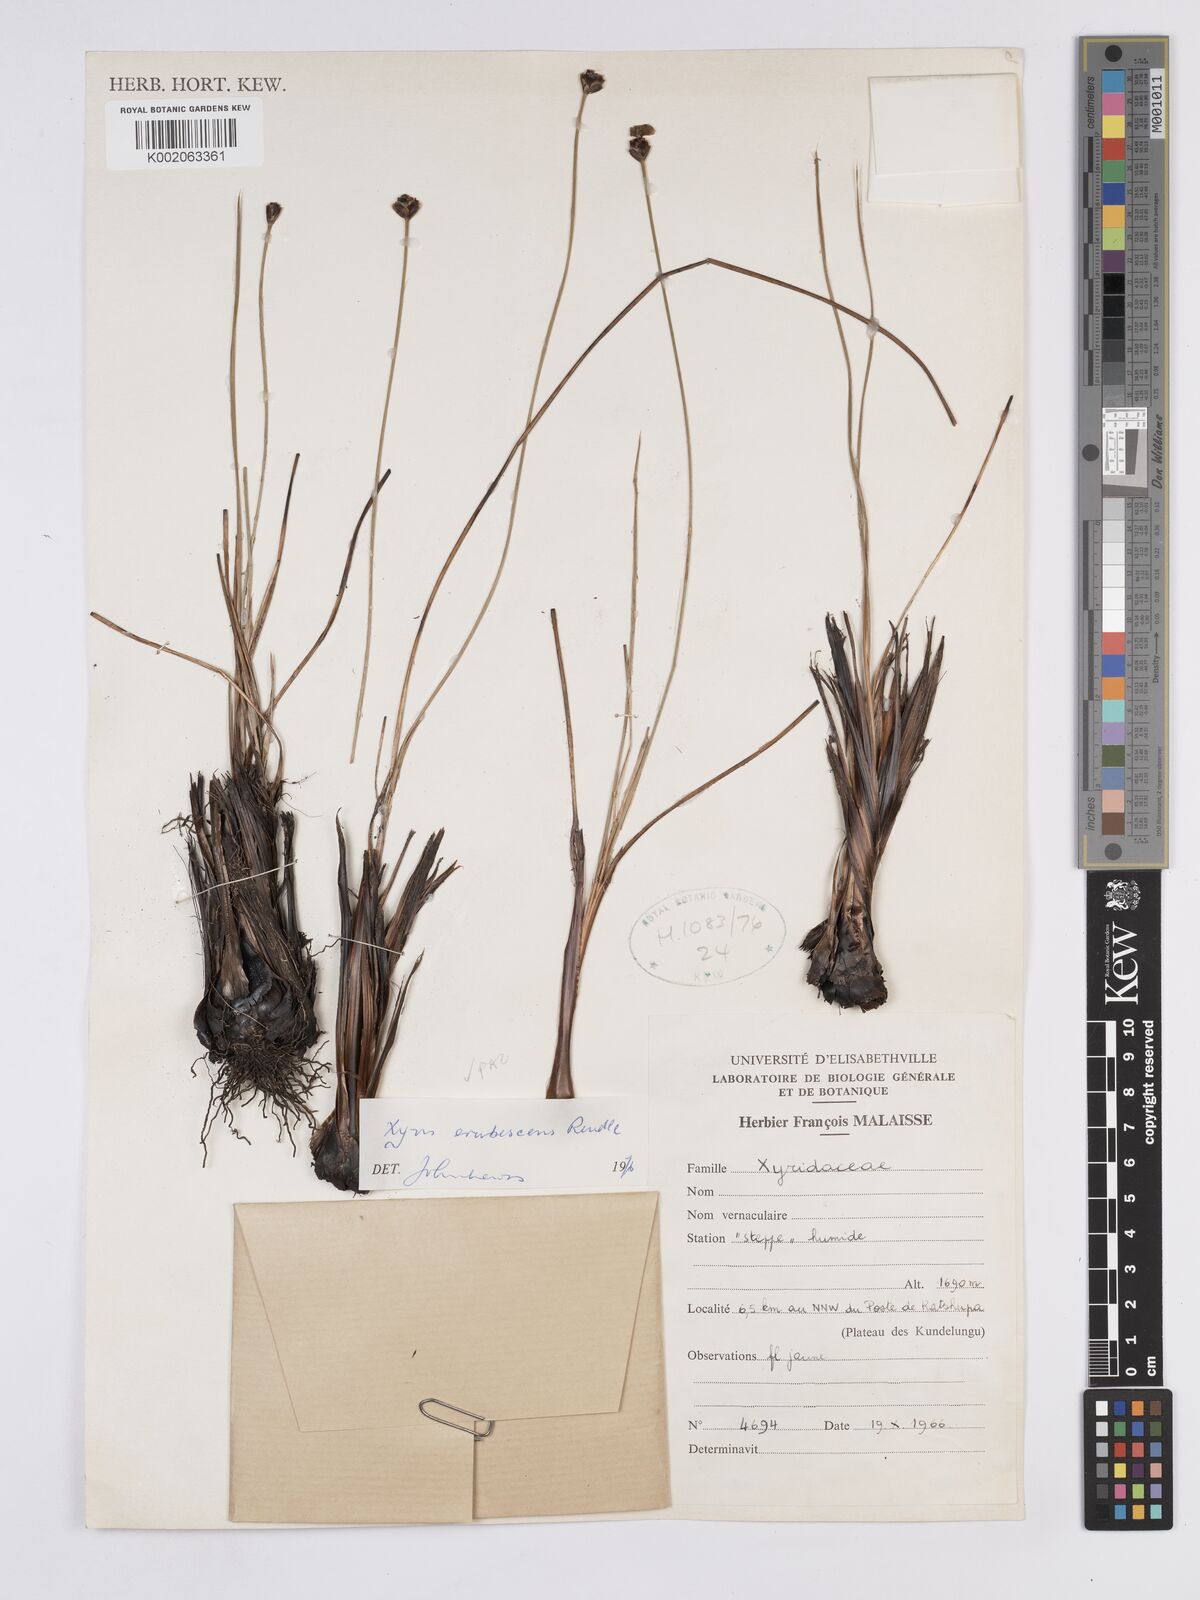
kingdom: Plantae
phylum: Tracheophyta
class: Liliopsida
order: Poales
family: Xyridaceae
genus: Xyris
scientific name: Xyris erubescens
